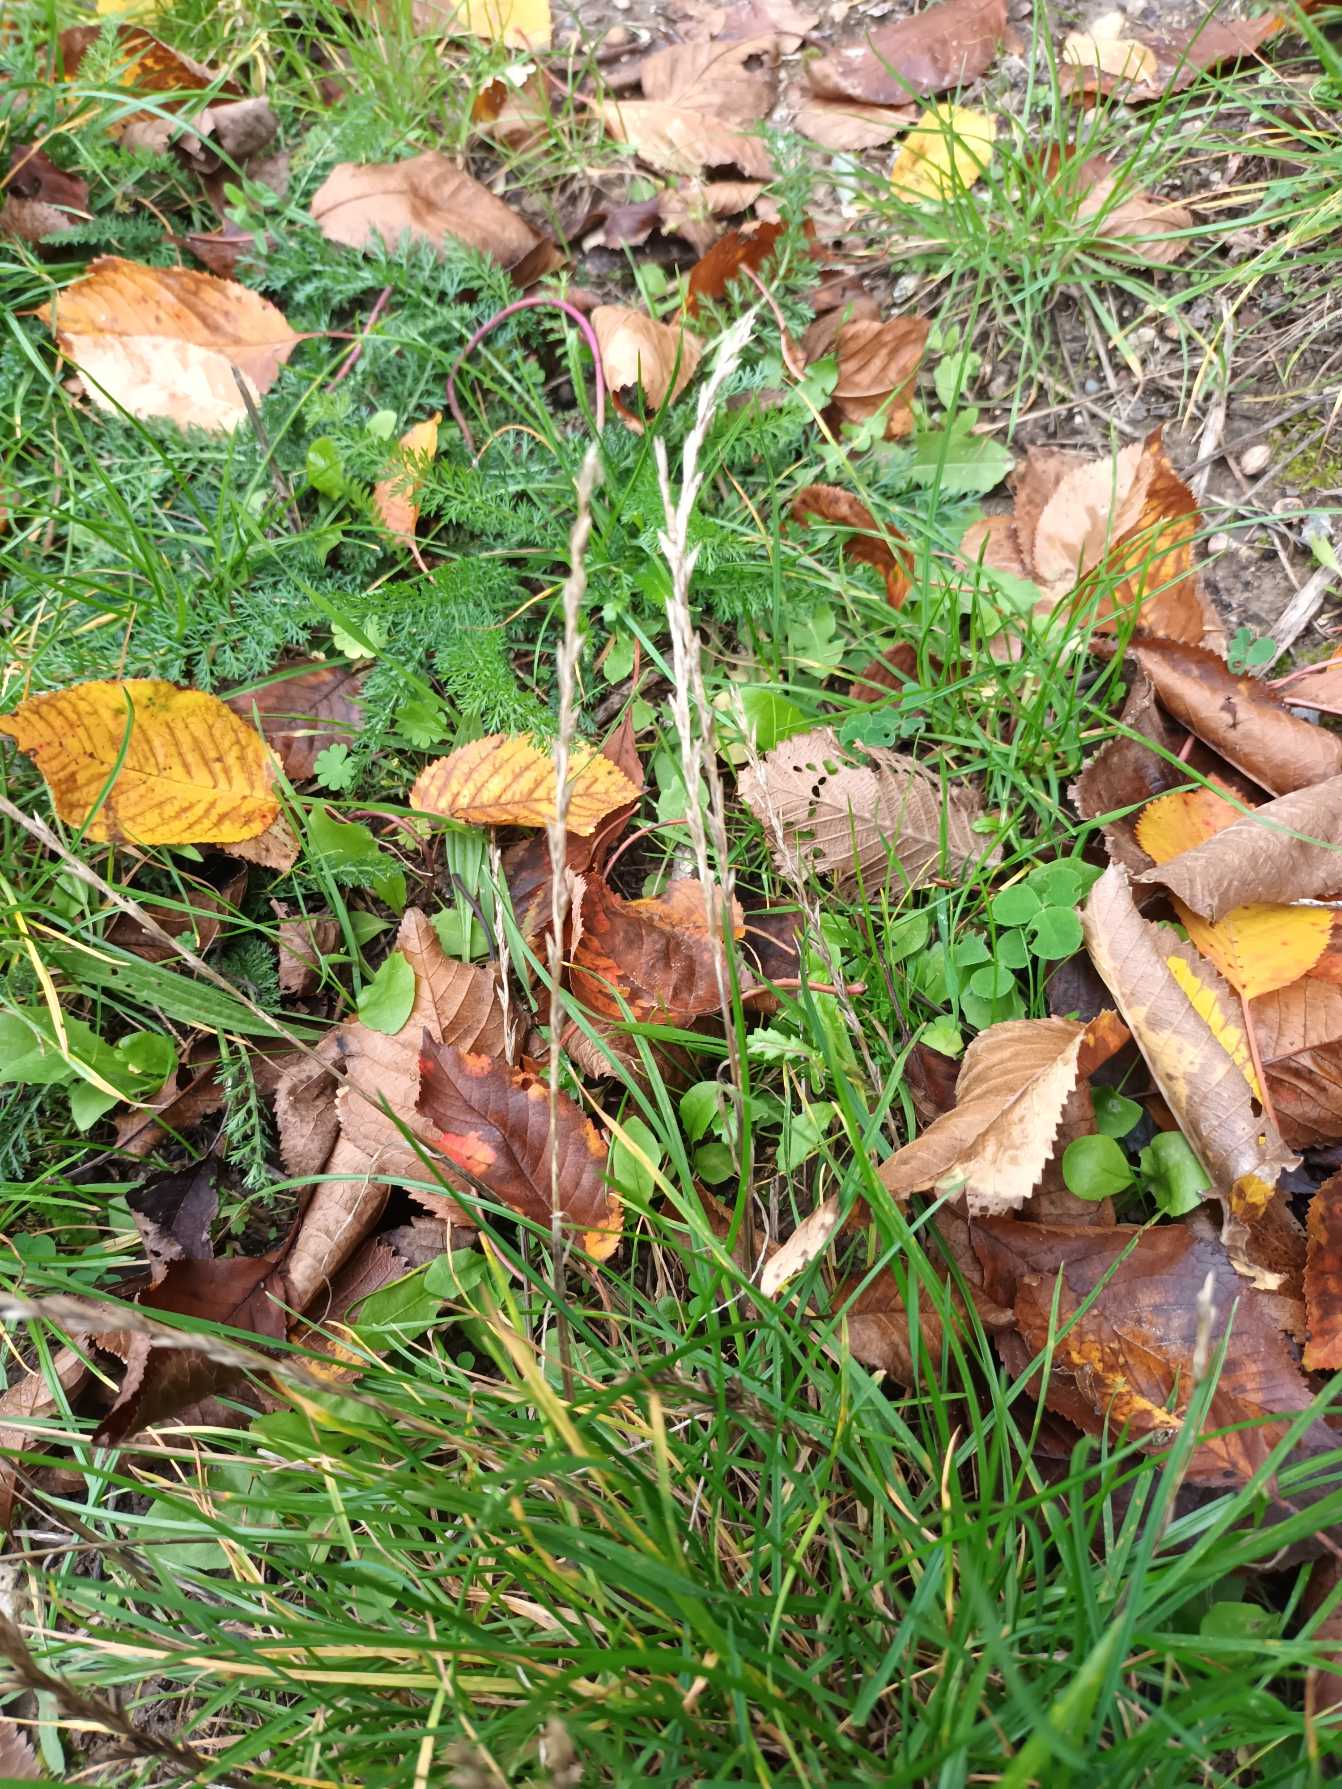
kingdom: Plantae
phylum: Tracheophyta
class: Liliopsida
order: Poales
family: Poaceae
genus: Lolium
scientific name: Lolium perenne
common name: Almindelig rajgræs
